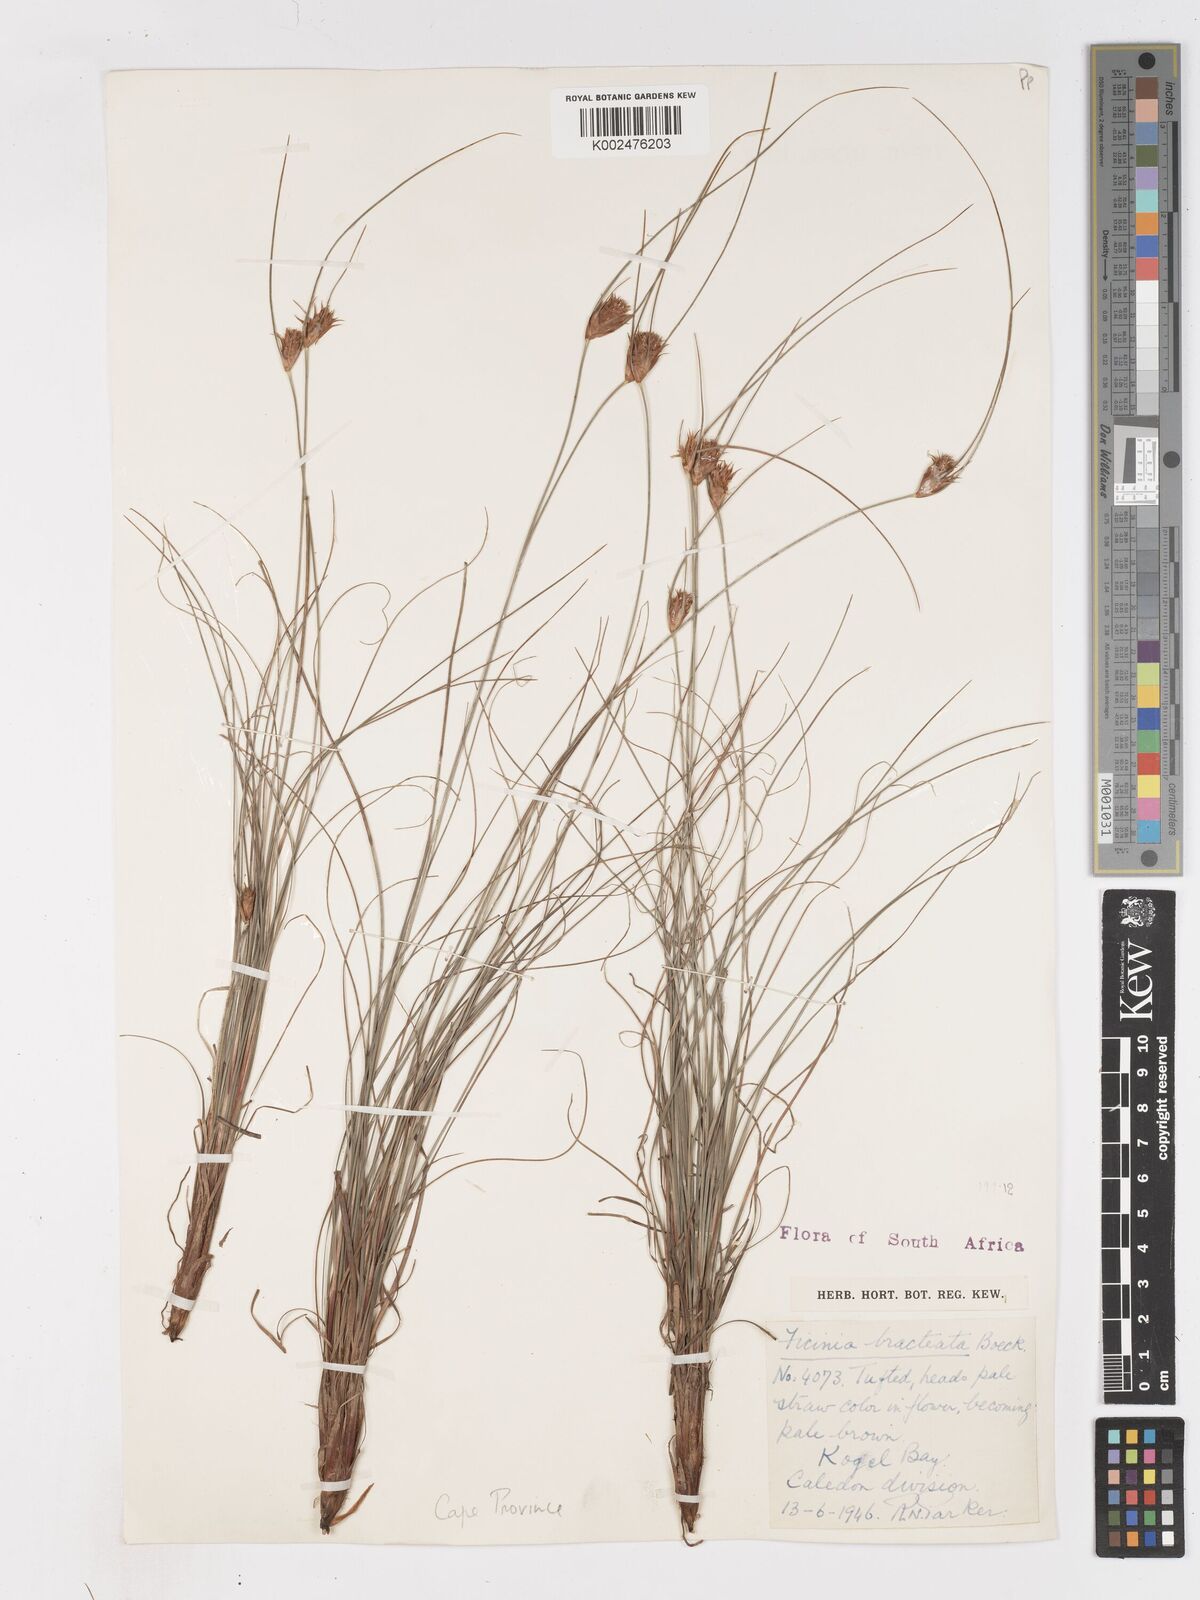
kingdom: Plantae
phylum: Tracheophyta
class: Liliopsida
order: Poales
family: Cyperaceae
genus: Ficinia
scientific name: Ficinia nigrescens
